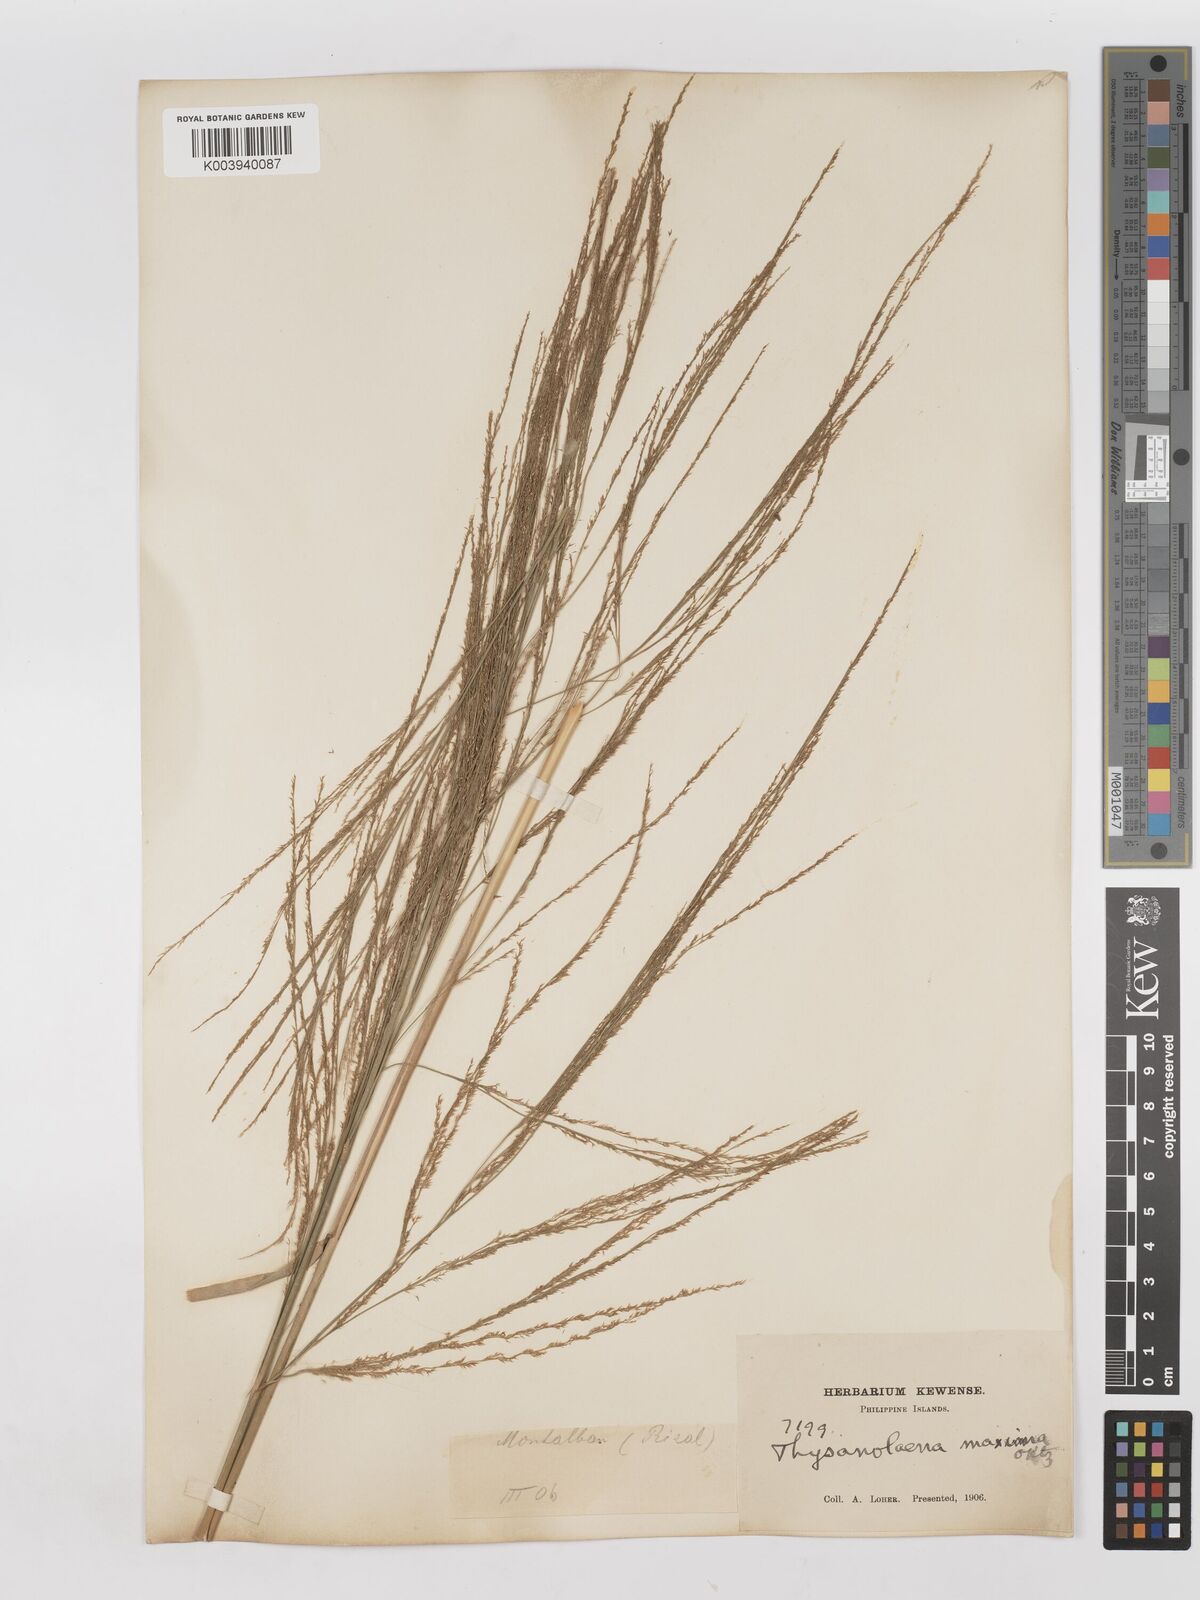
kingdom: Plantae
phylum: Tracheophyta
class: Liliopsida
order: Poales
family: Poaceae
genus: Thysanolaena
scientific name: Thysanolaena latifolia
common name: Tiger grass
